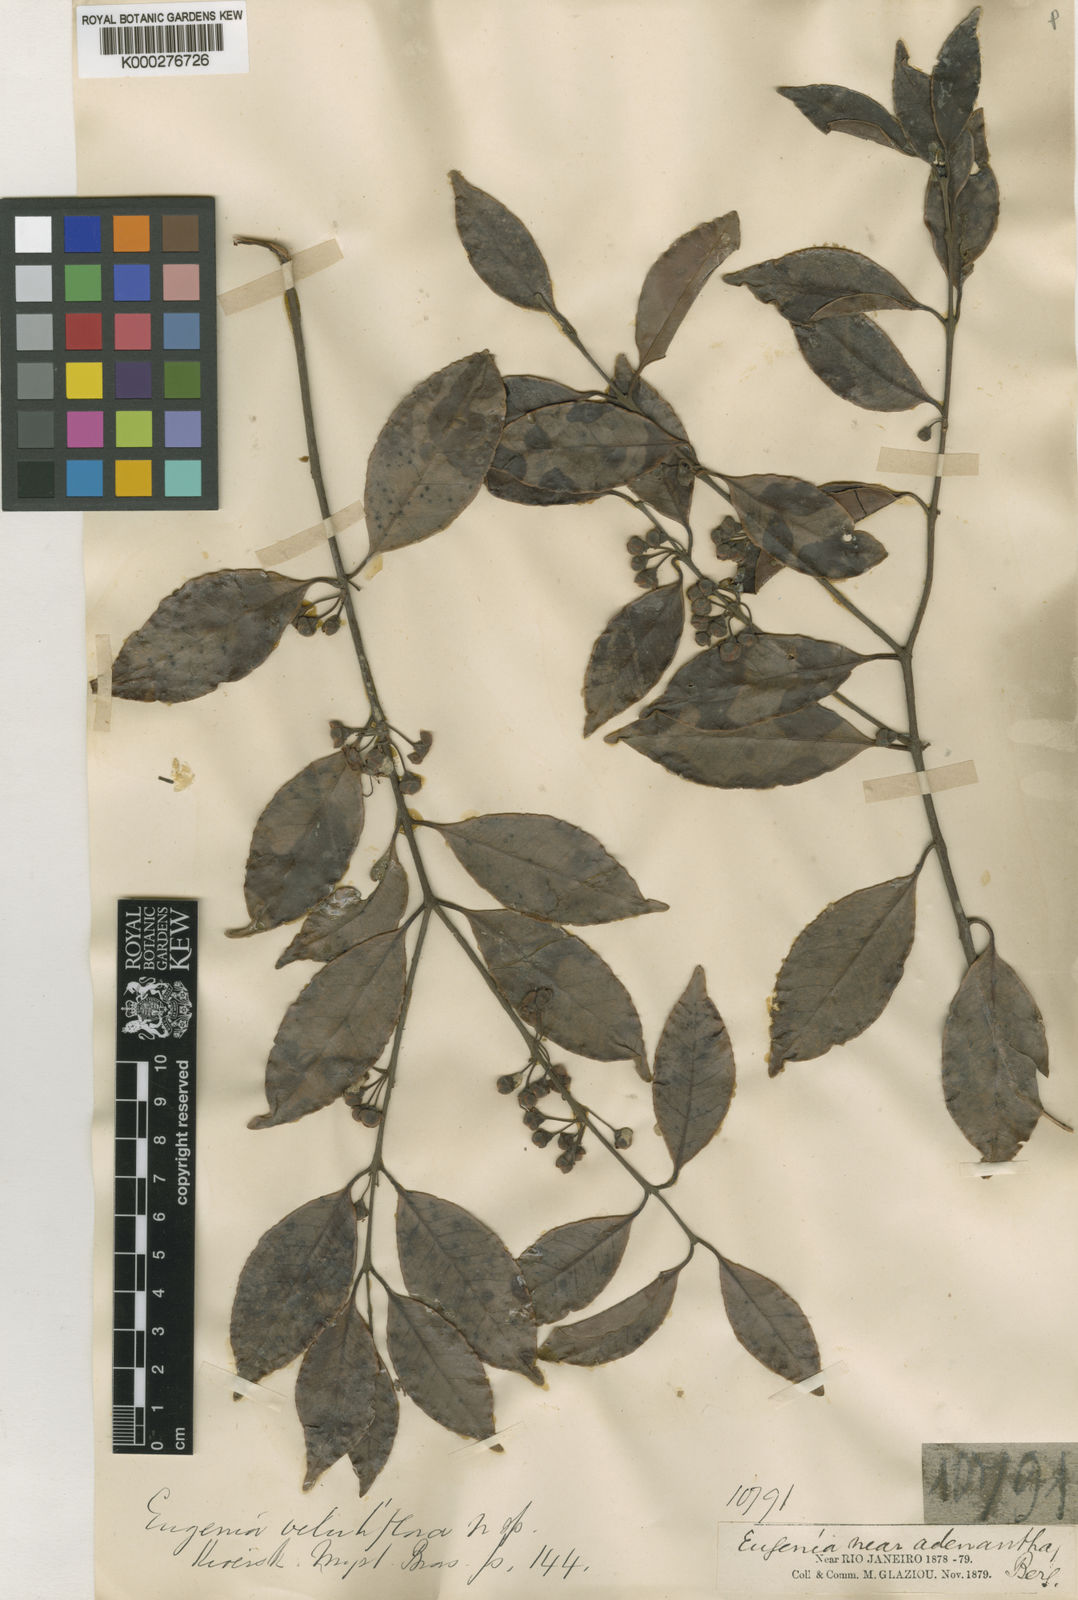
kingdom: Plantae
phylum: Tracheophyta
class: Magnoliopsida
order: Myrtales
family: Myrtaceae
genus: Eugenia
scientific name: Eugenia bahiensis
